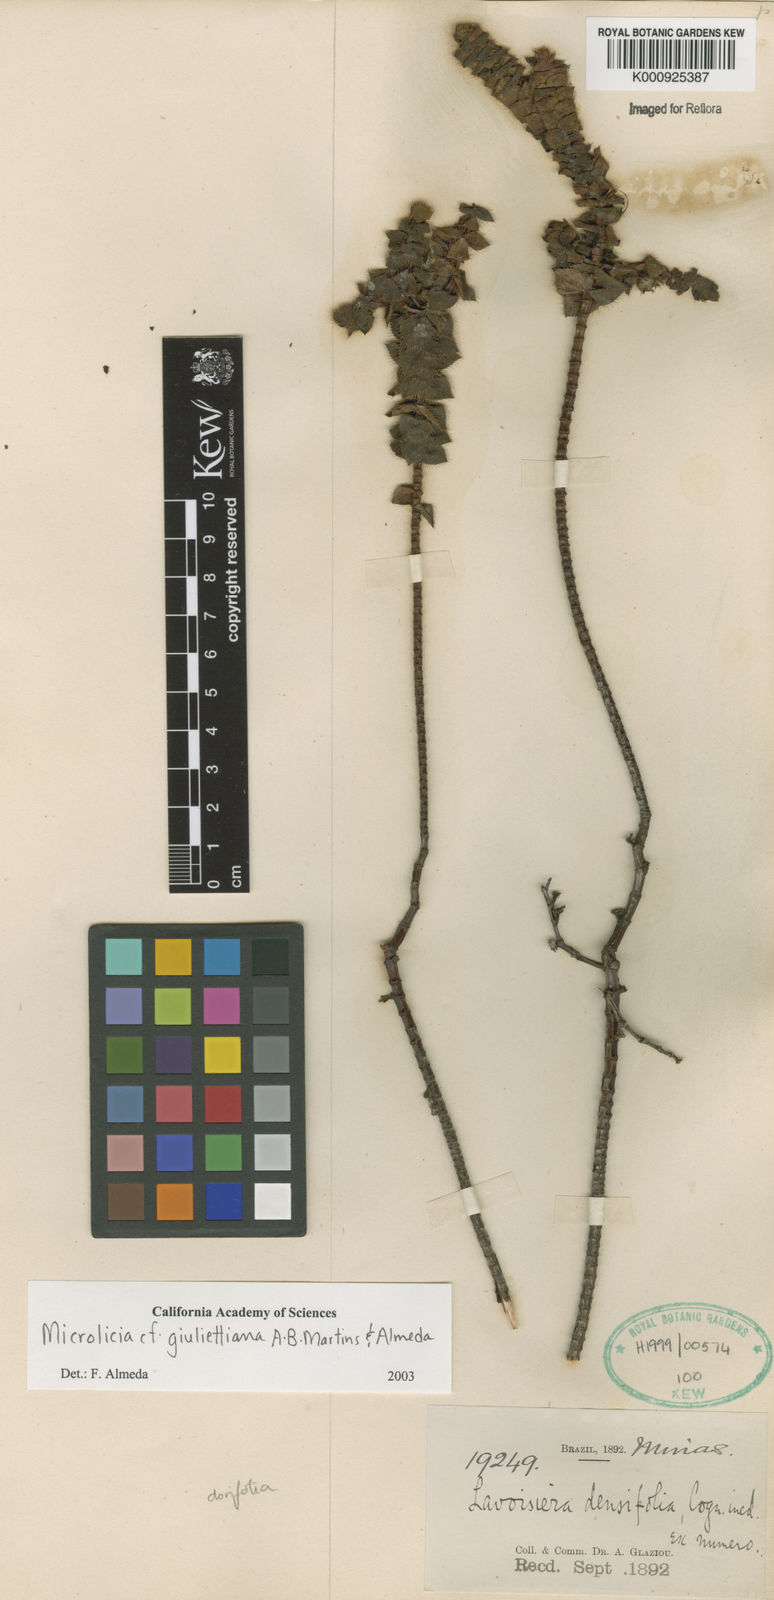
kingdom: Plantae
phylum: Tracheophyta
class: Magnoliopsida
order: Myrtales
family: Melastomataceae
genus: Microlicia
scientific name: Microlicia
